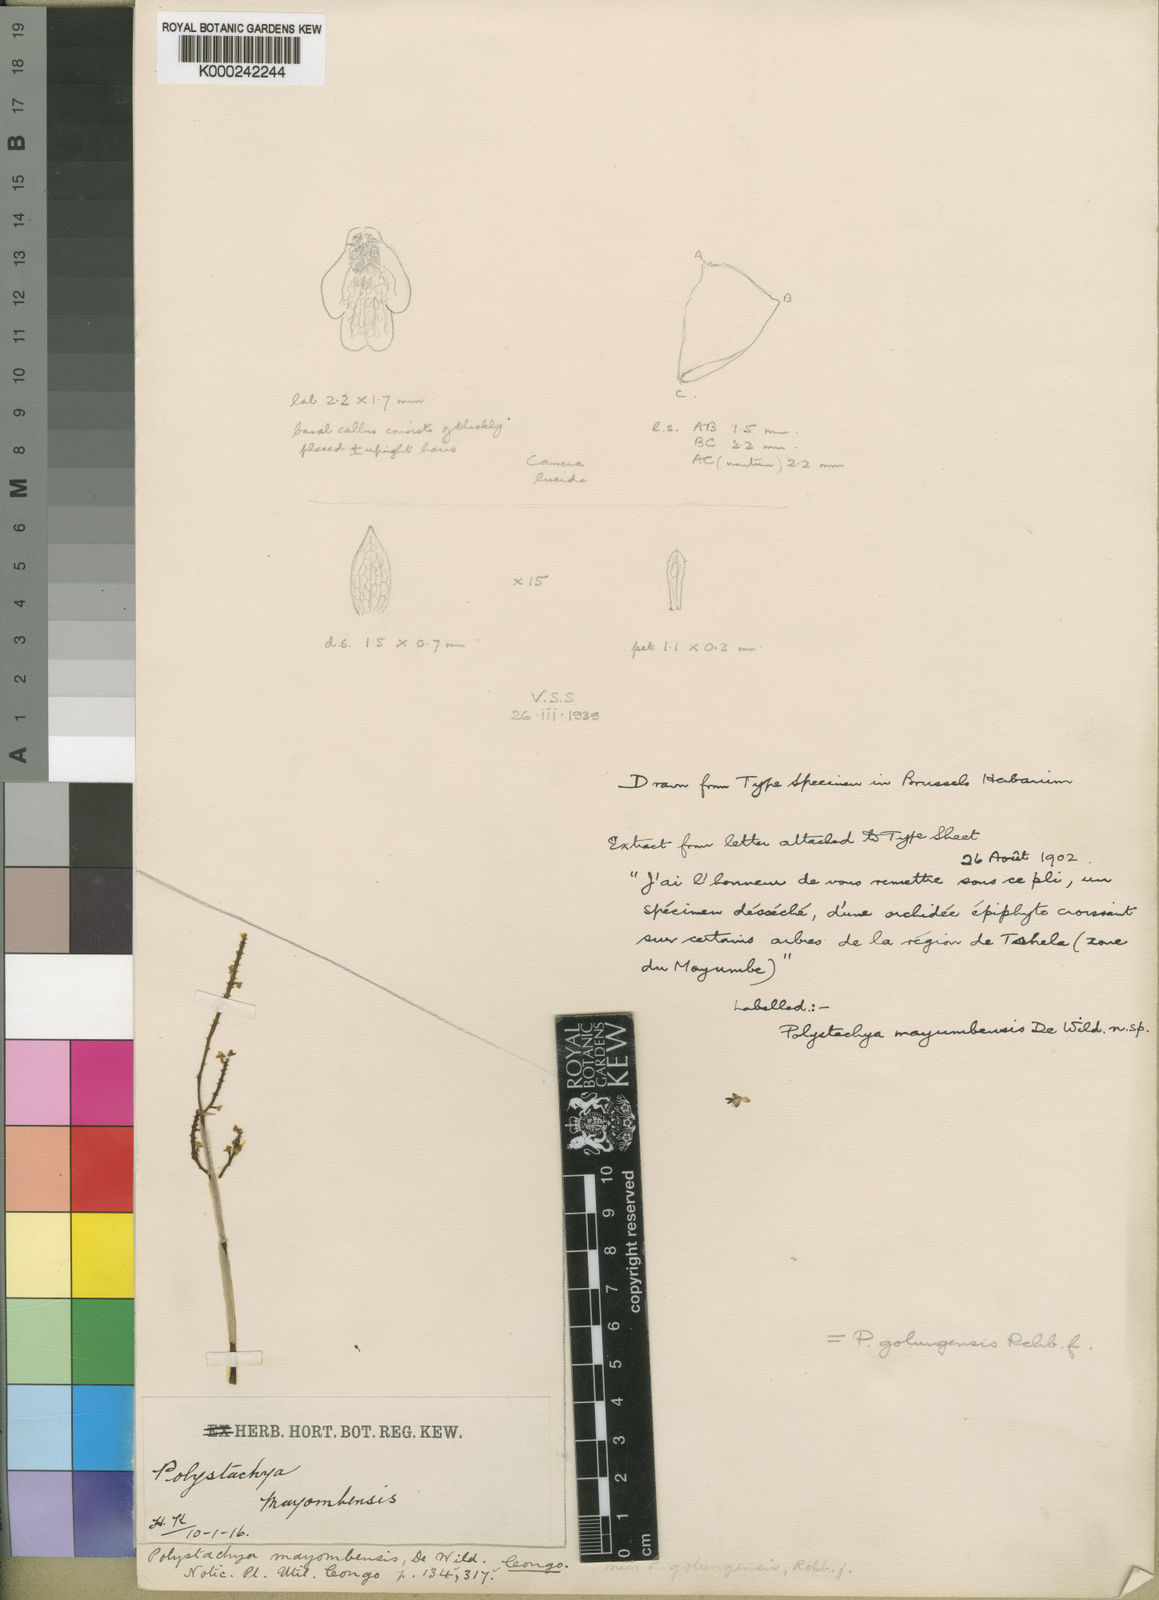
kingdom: Plantae
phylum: Tracheophyta
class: Liliopsida
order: Asparagales
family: Orchidaceae
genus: Polystachya
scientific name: Polystachya golungensis
